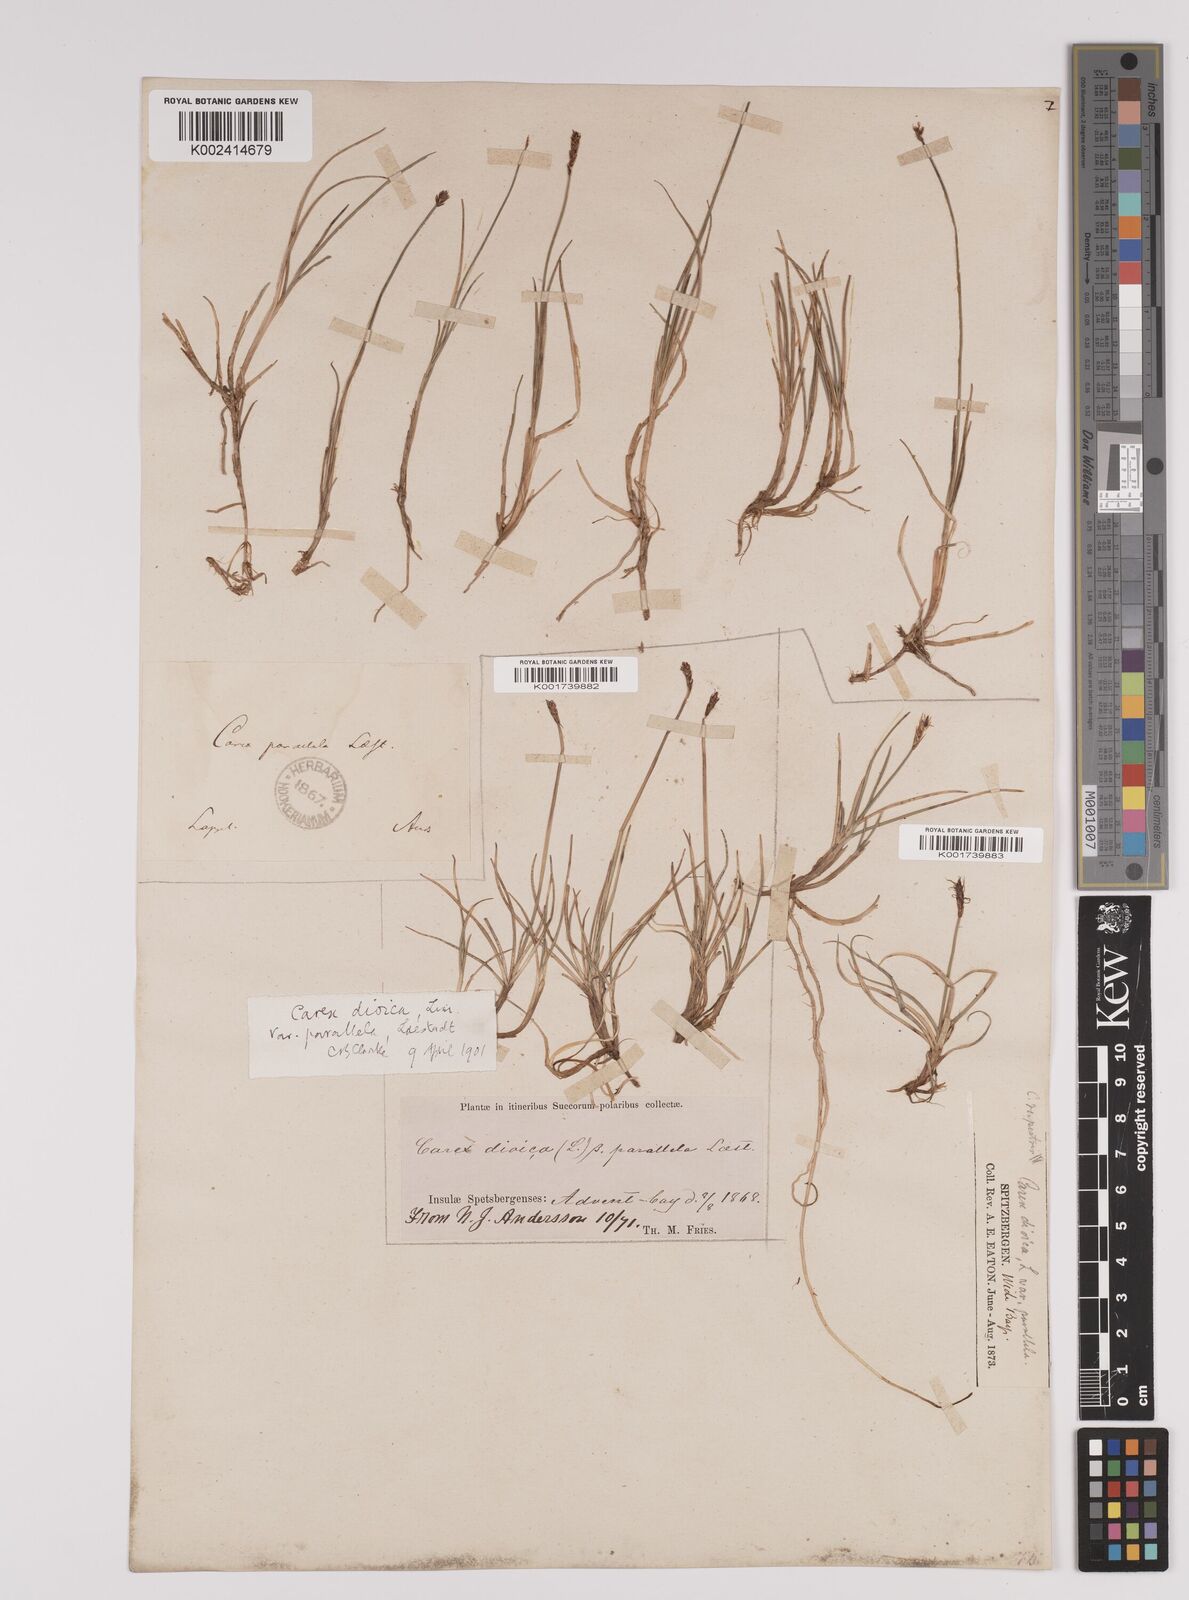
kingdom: Plantae
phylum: Tracheophyta
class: Liliopsida
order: Poales
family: Cyperaceae
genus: Carex
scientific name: Carex parallela
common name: Parallel sedge
